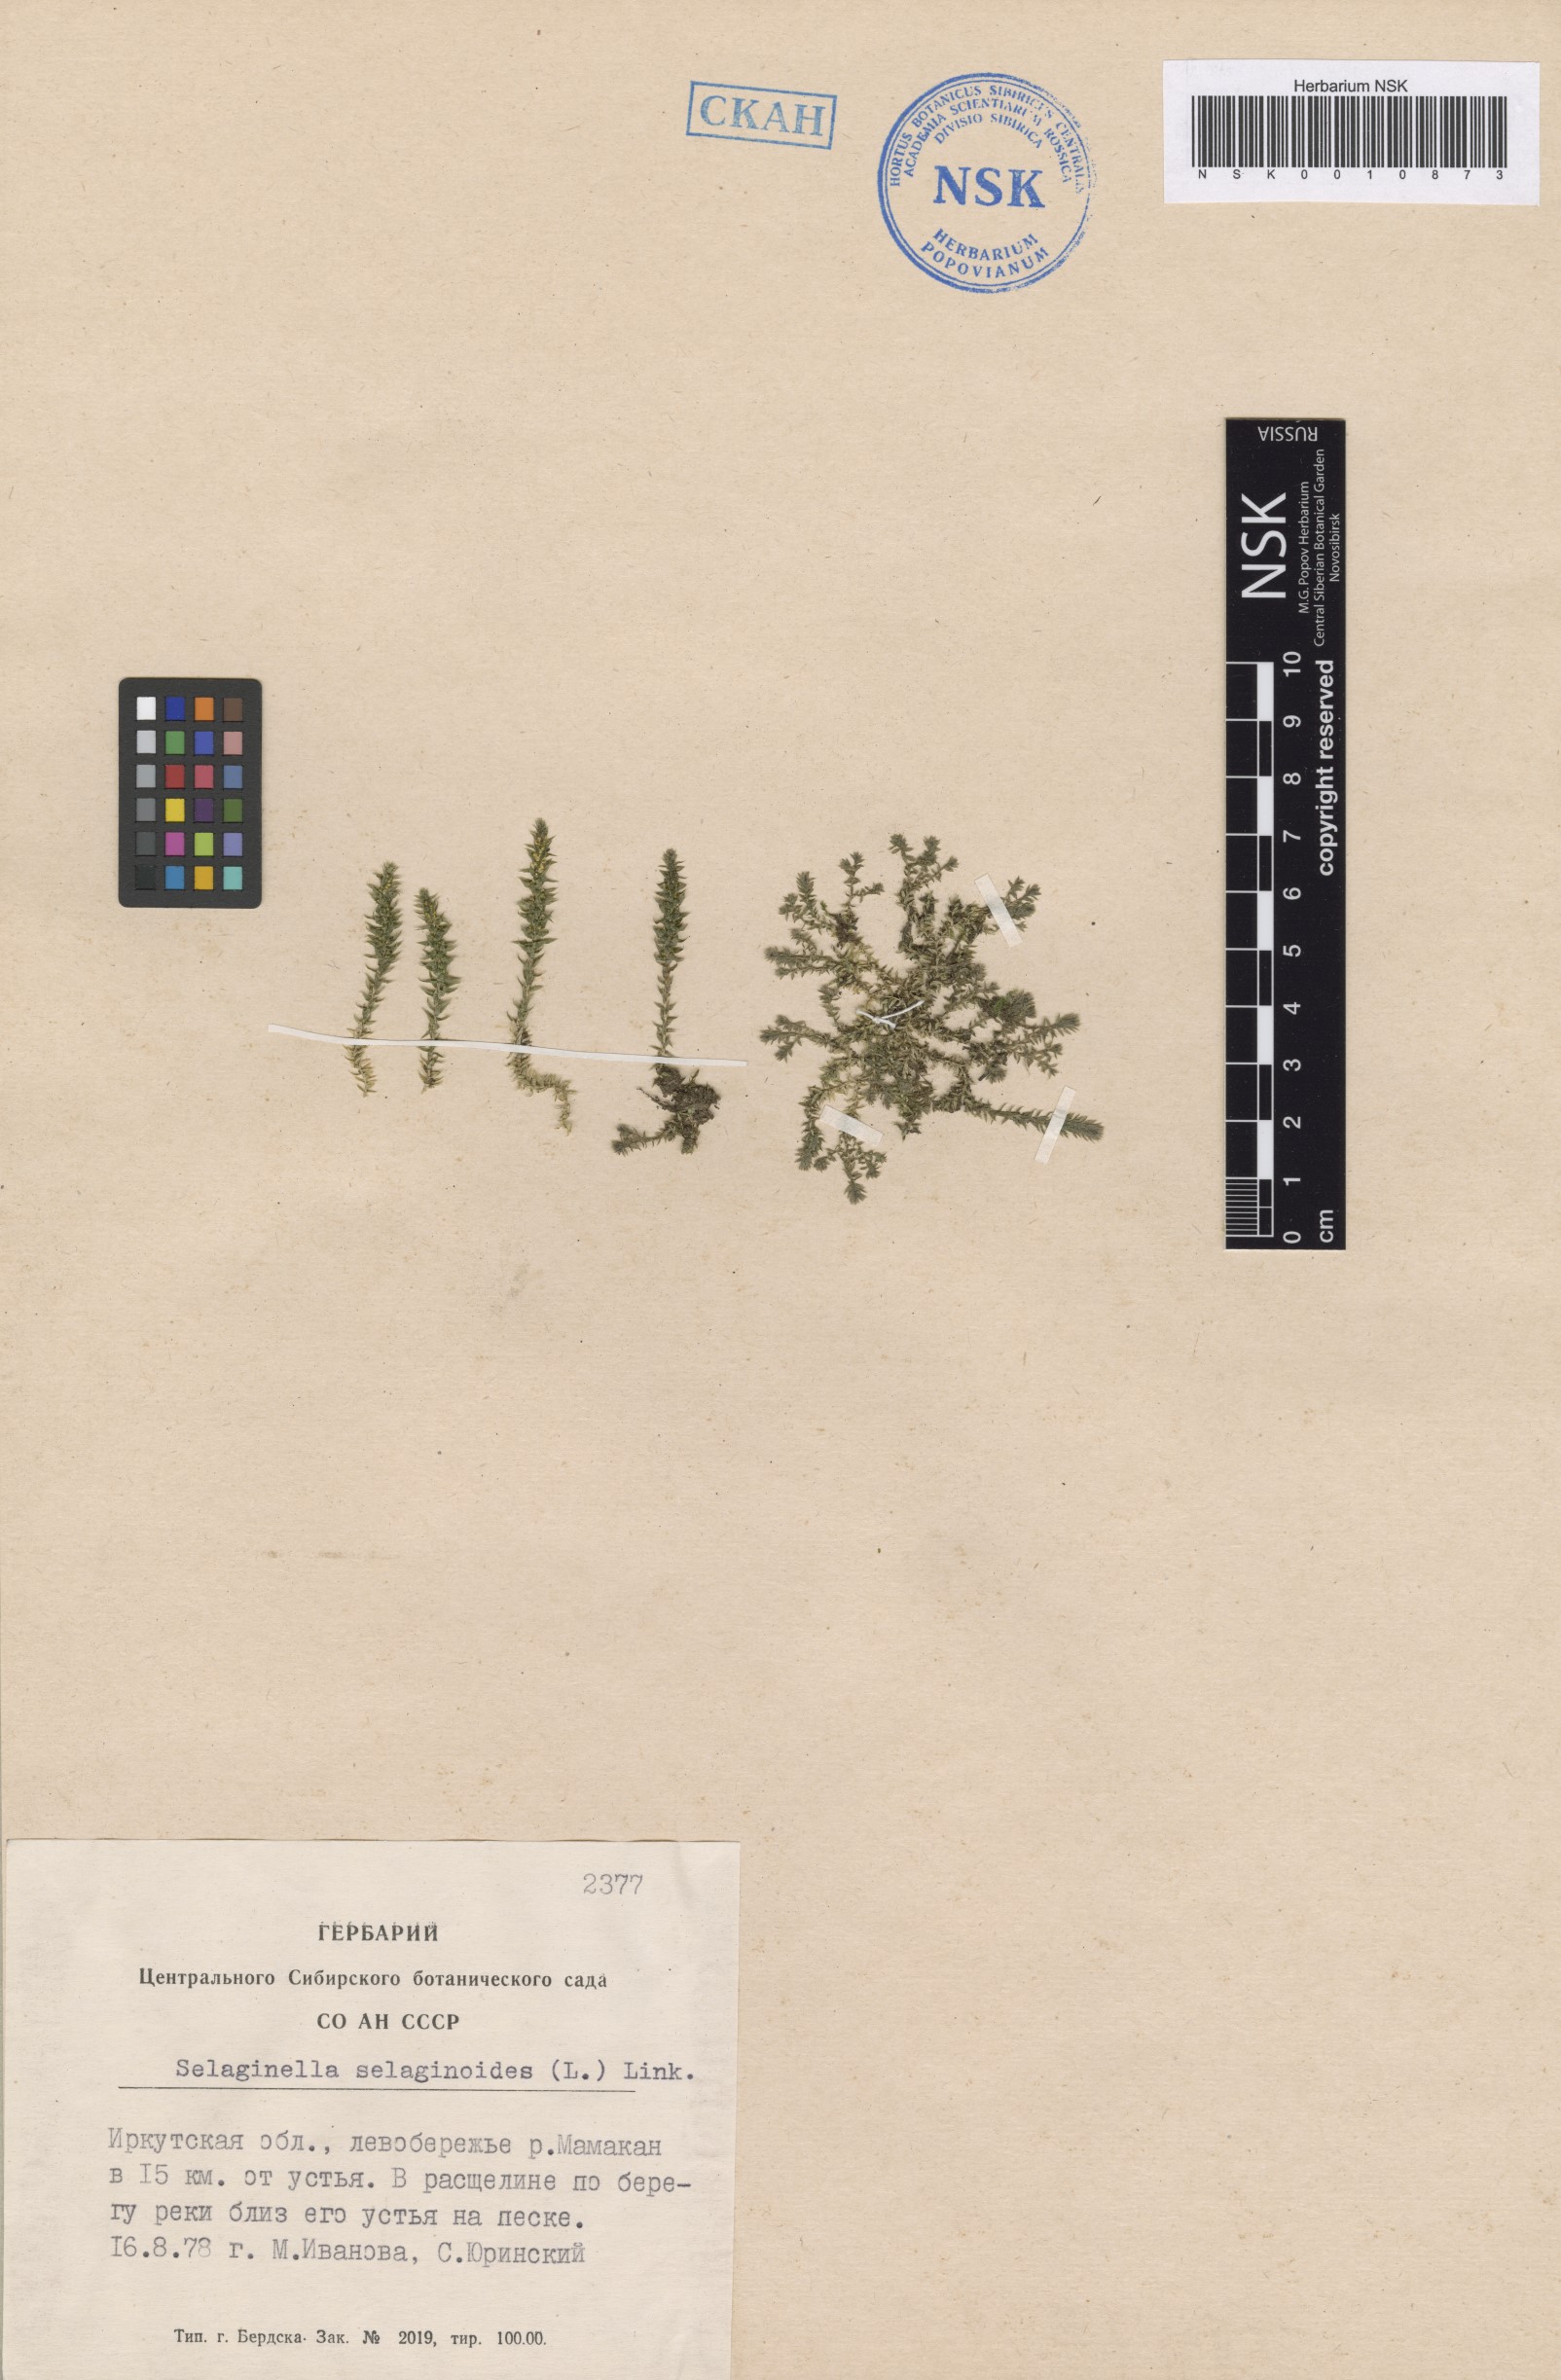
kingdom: Plantae
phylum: Tracheophyta
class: Lycopodiopsida
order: Selaginellales
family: Selaginellaceae
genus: Selaginella
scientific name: Selaginella selaginoides
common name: Prickly mountain-moss
